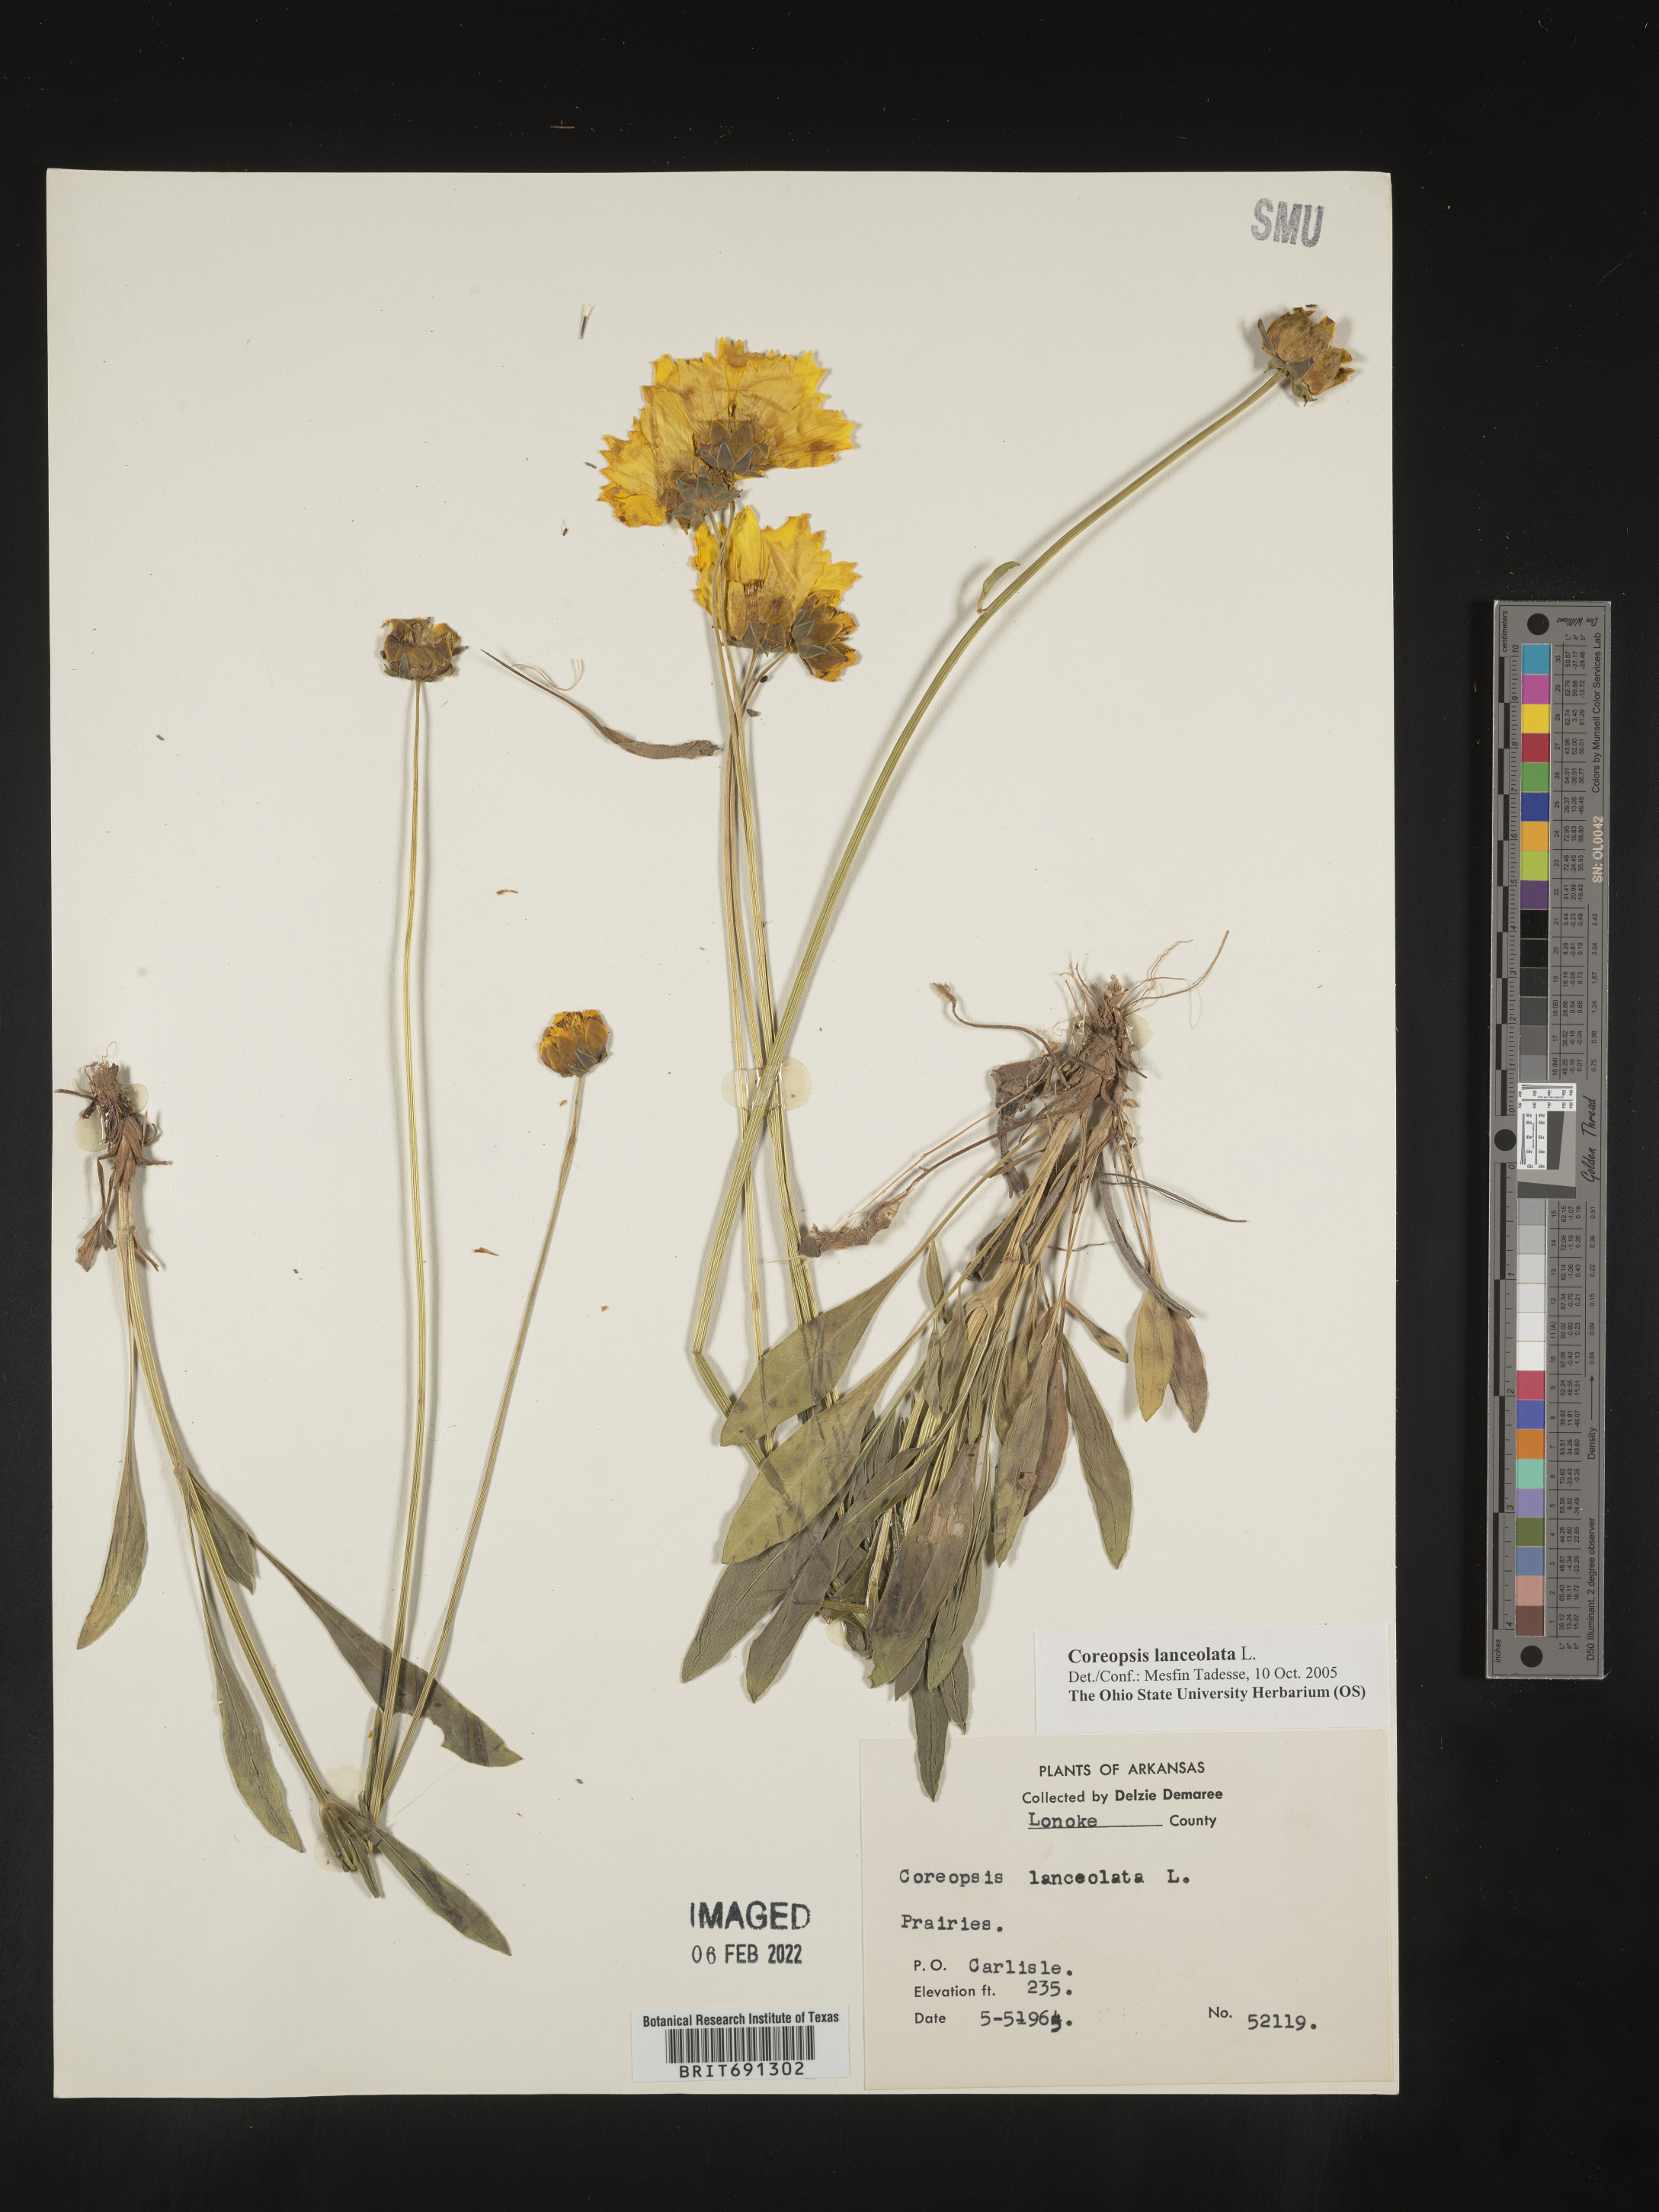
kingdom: Plantae
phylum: Tracheophyta
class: Magnoliopsida
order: Asterales
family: Asteraceae
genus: Coreopsis
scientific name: Coreopsis lanceolata
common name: Garden coreopsis
